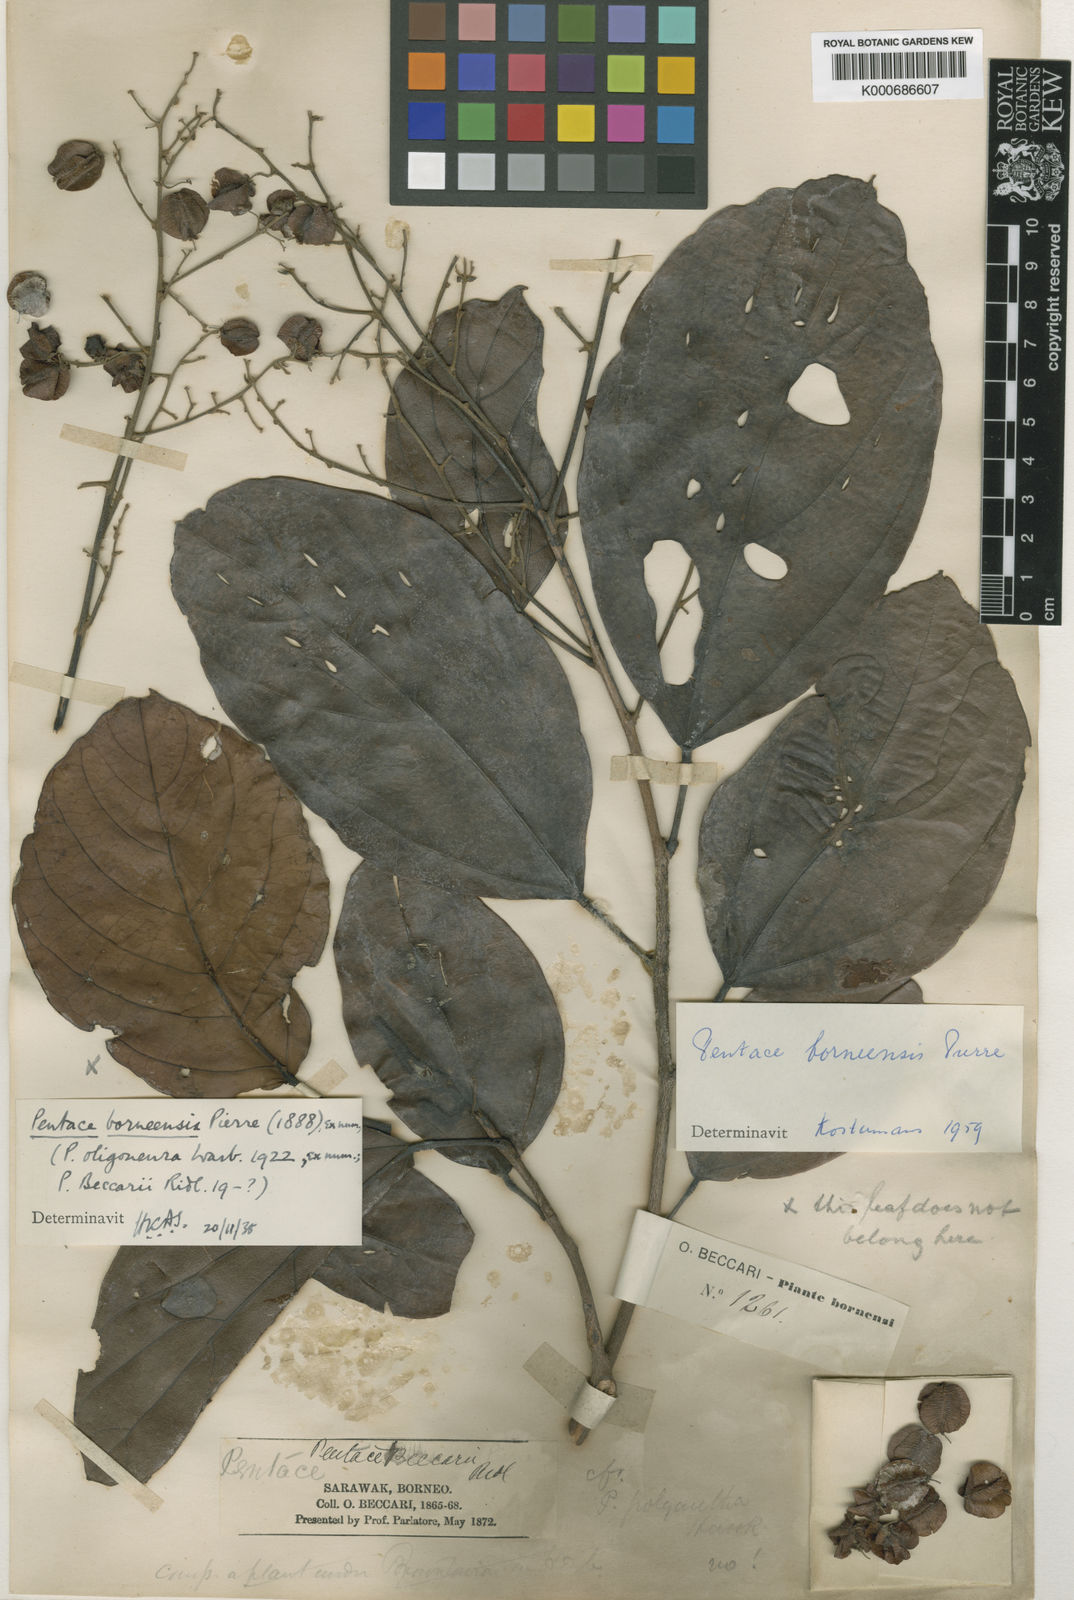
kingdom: Plantae
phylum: Tracheophyta
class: Magnoliopsida
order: Malvales
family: Malvaceae
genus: Pentace
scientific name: Pentace borneensis
